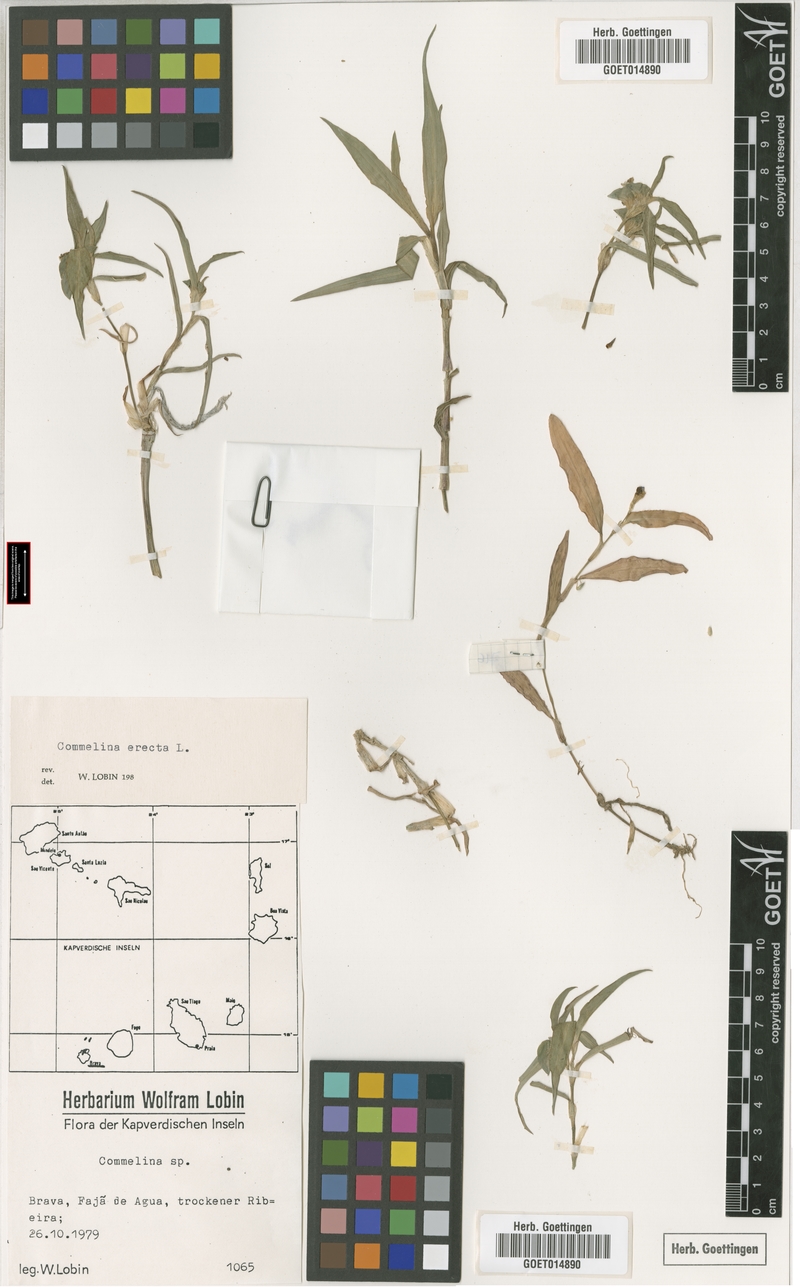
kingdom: Plantae
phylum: Tracheophyta
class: Liliopsida
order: Commelinales
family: Commelinaceae
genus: Commelina
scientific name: Commelina erecta
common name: Blousel blommetjie
